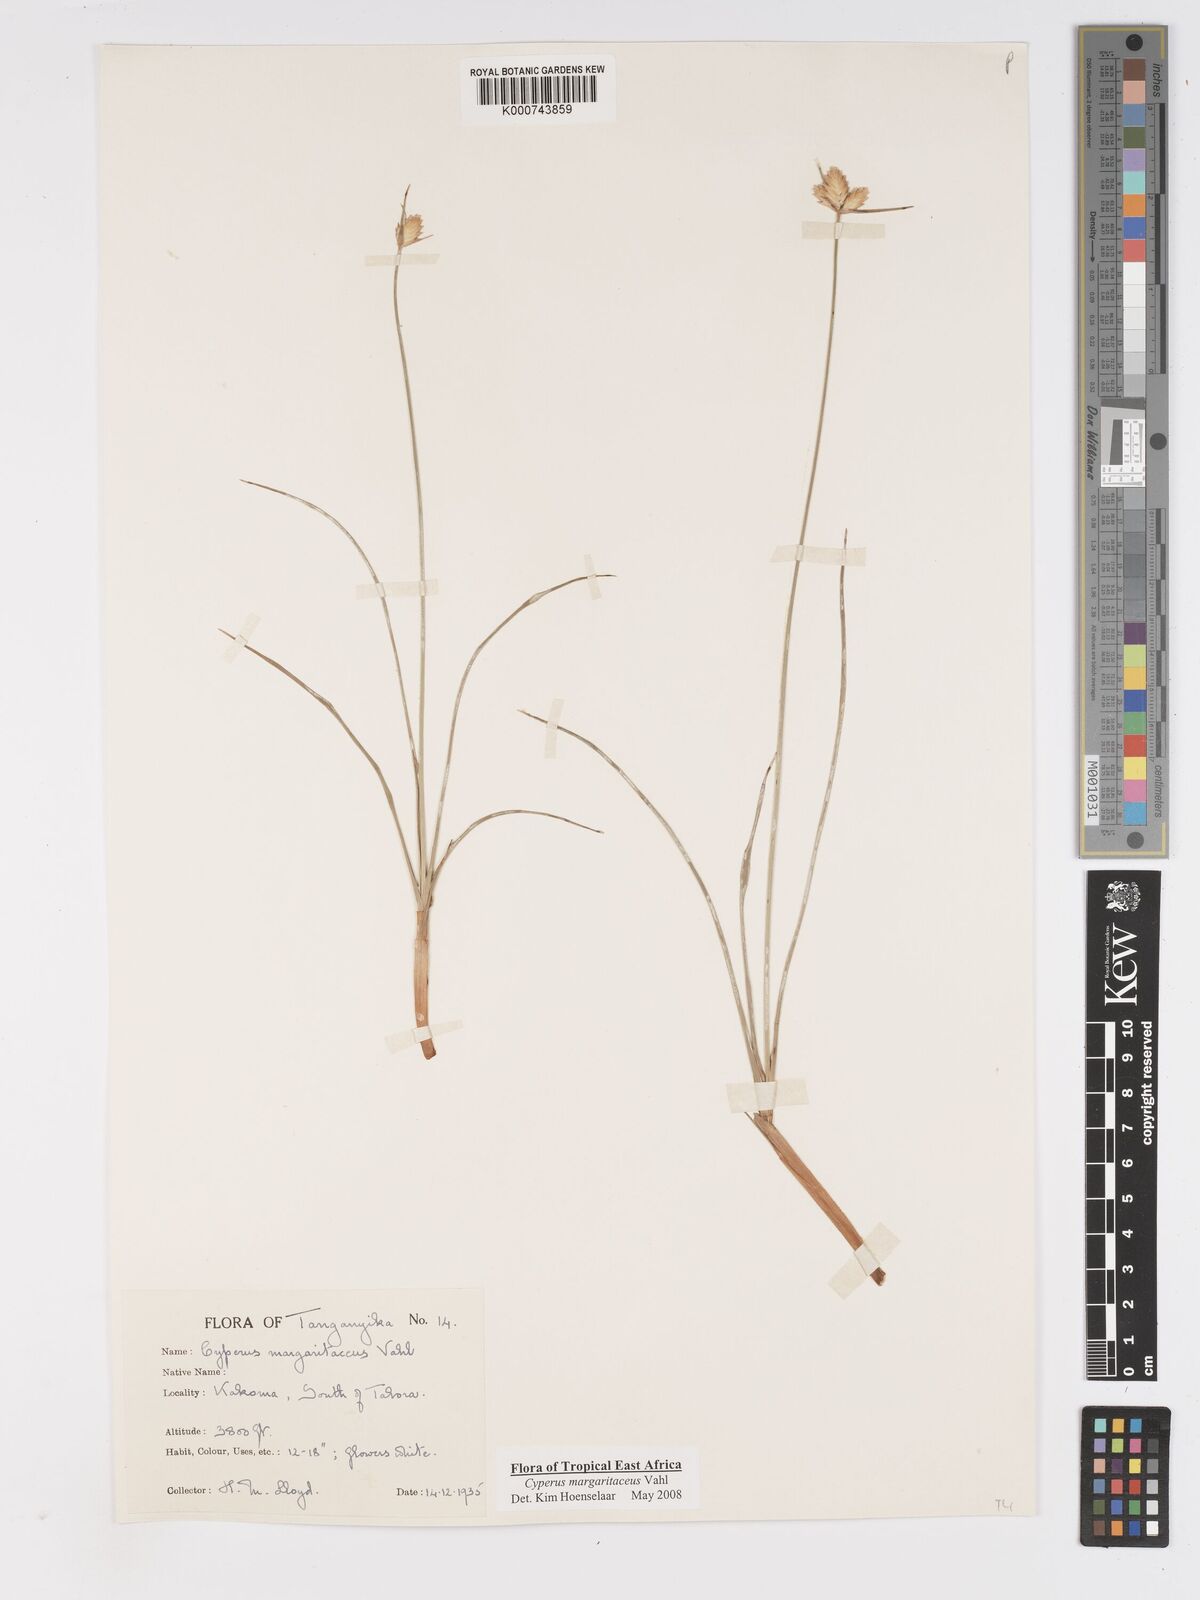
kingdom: Plantae
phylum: Tracheophyta
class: Liliopsida
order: Poales
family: Cyperaceae
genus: Cyperus
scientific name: Cyperus margaritaceus
